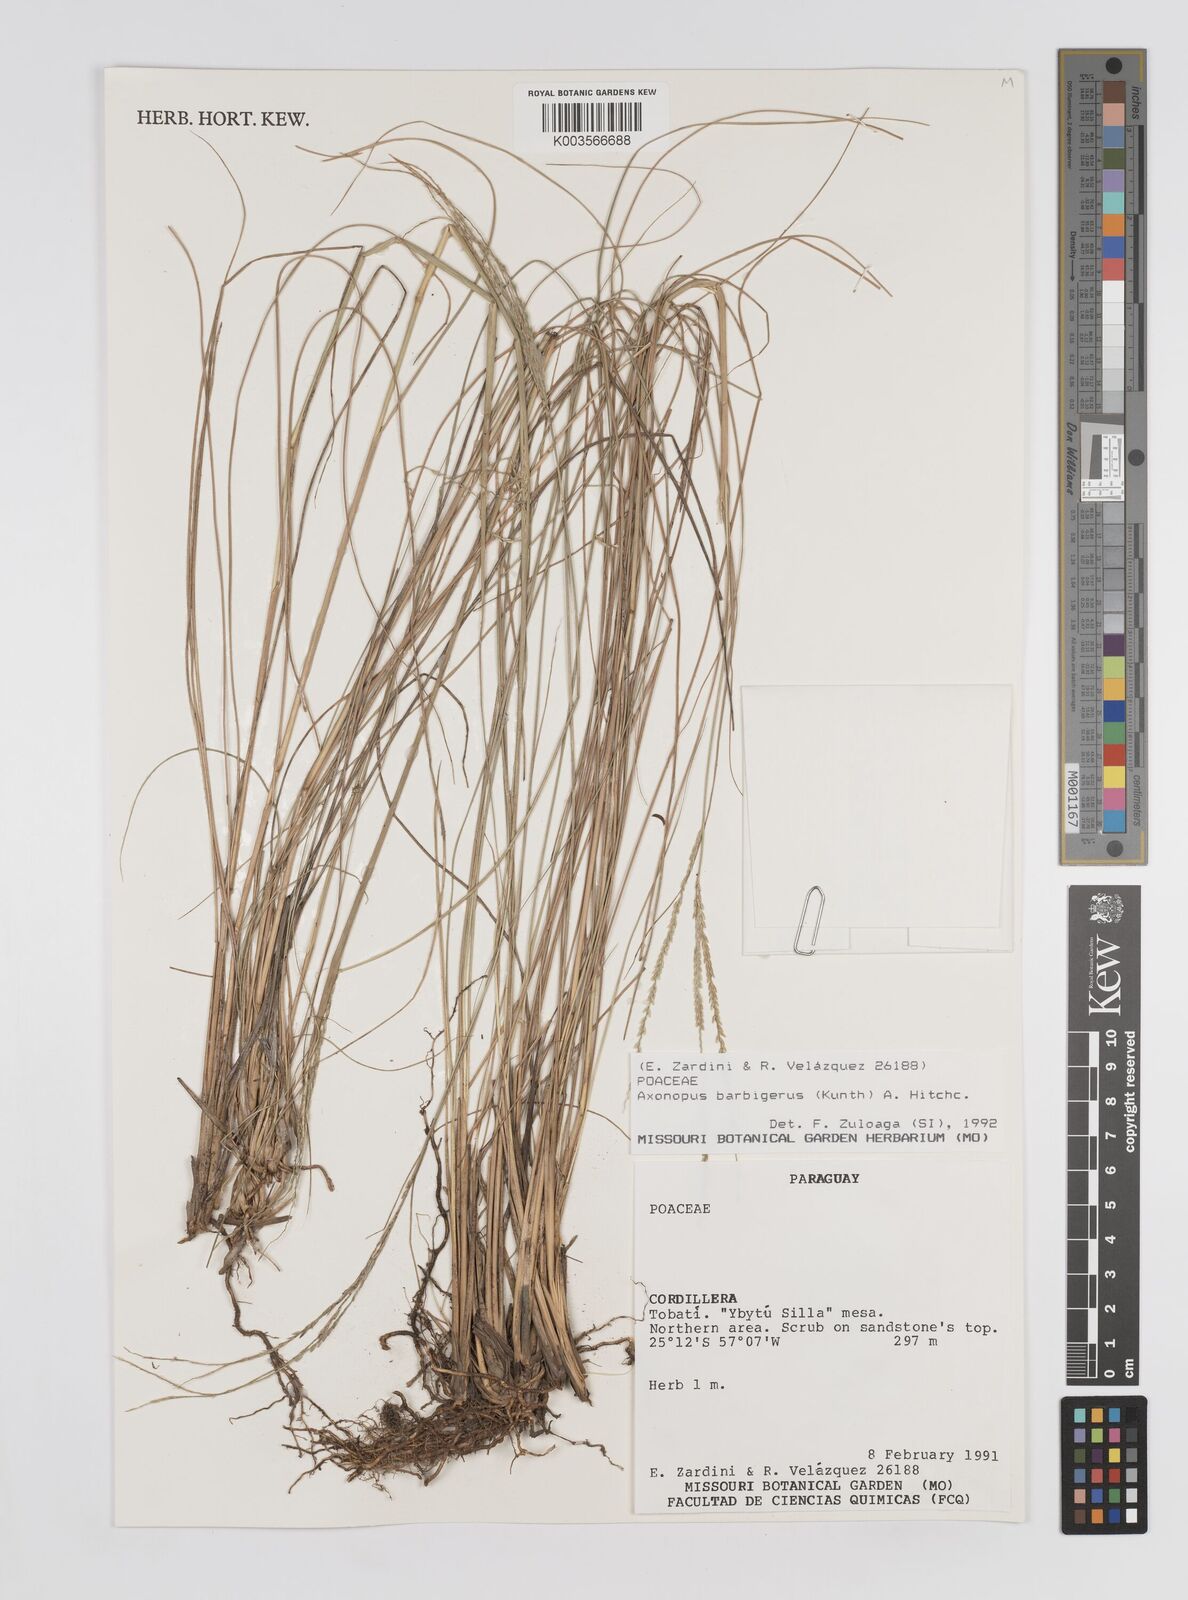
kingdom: Plantae
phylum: Tracheophyta
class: Liliopsida
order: Poales
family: Poaceae
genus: Axonopus
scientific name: Axonopus siccus
